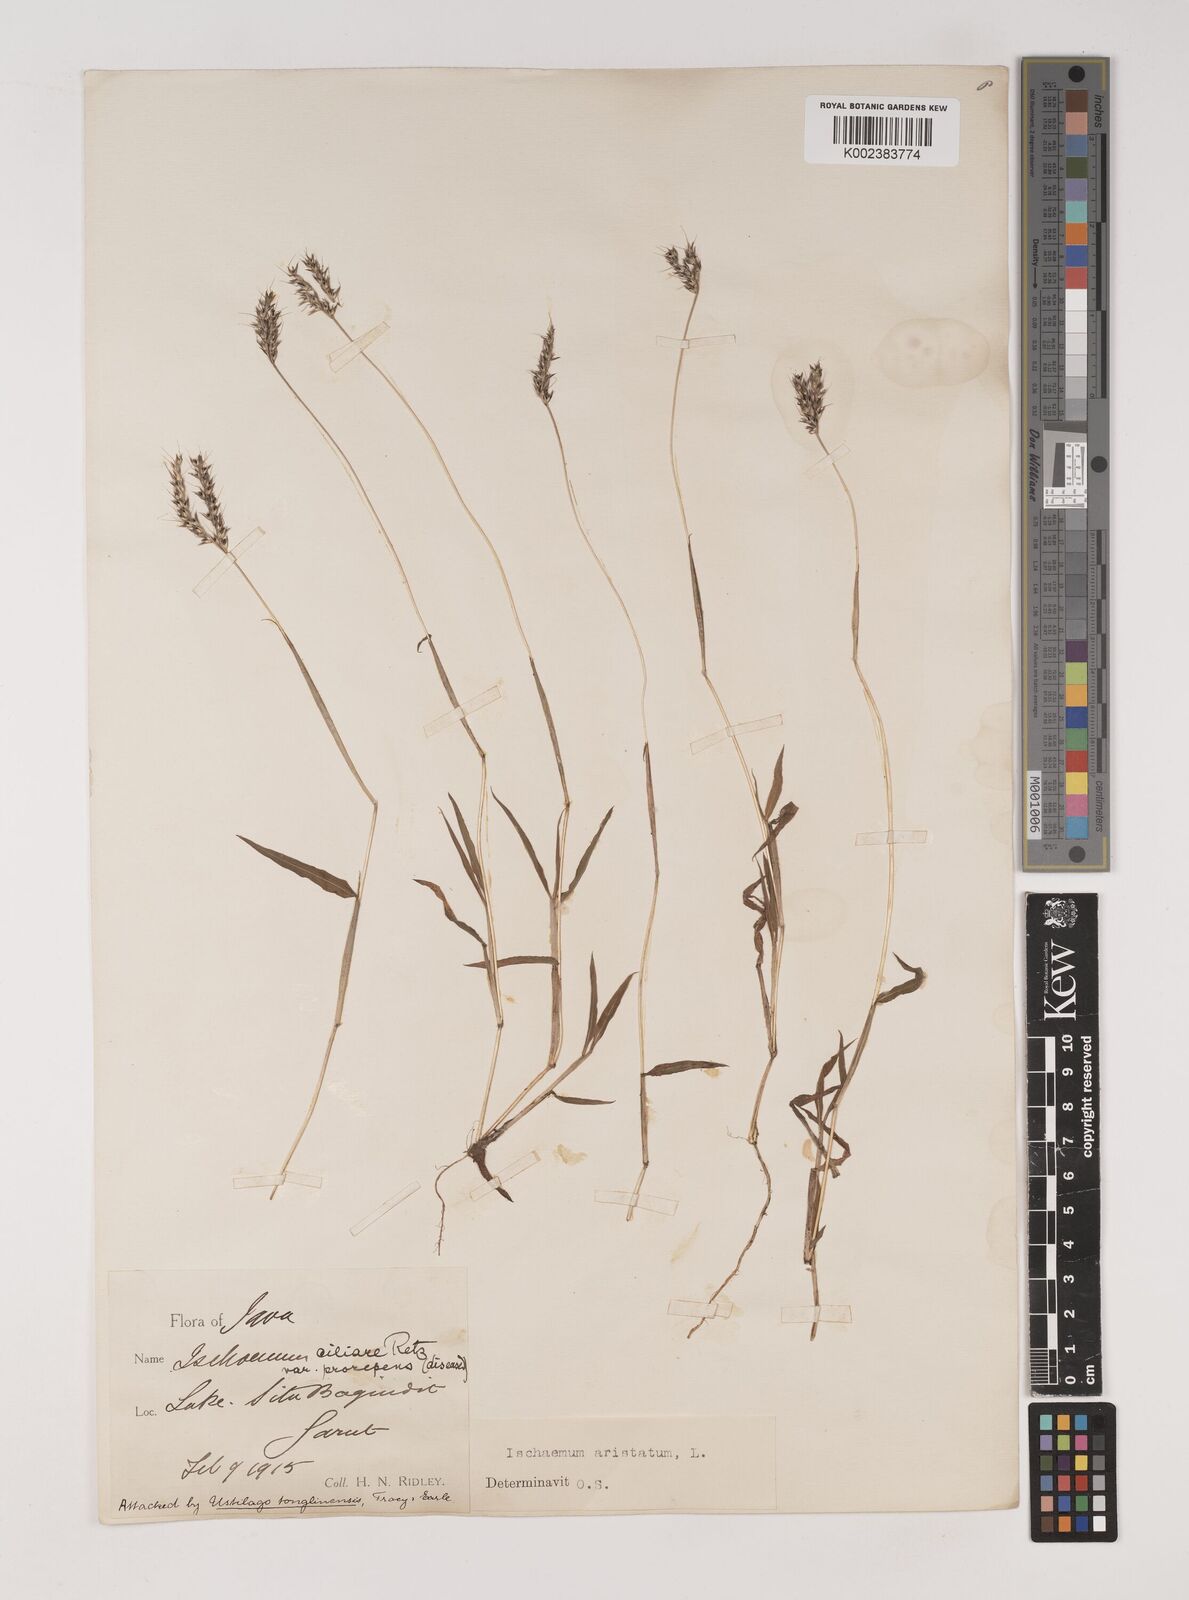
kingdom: Plantae
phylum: Tracheophyta
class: Liliopsida
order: Poales
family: Poaceae
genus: Polytrias
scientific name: Polytrias indica
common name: Indian murainagrass
